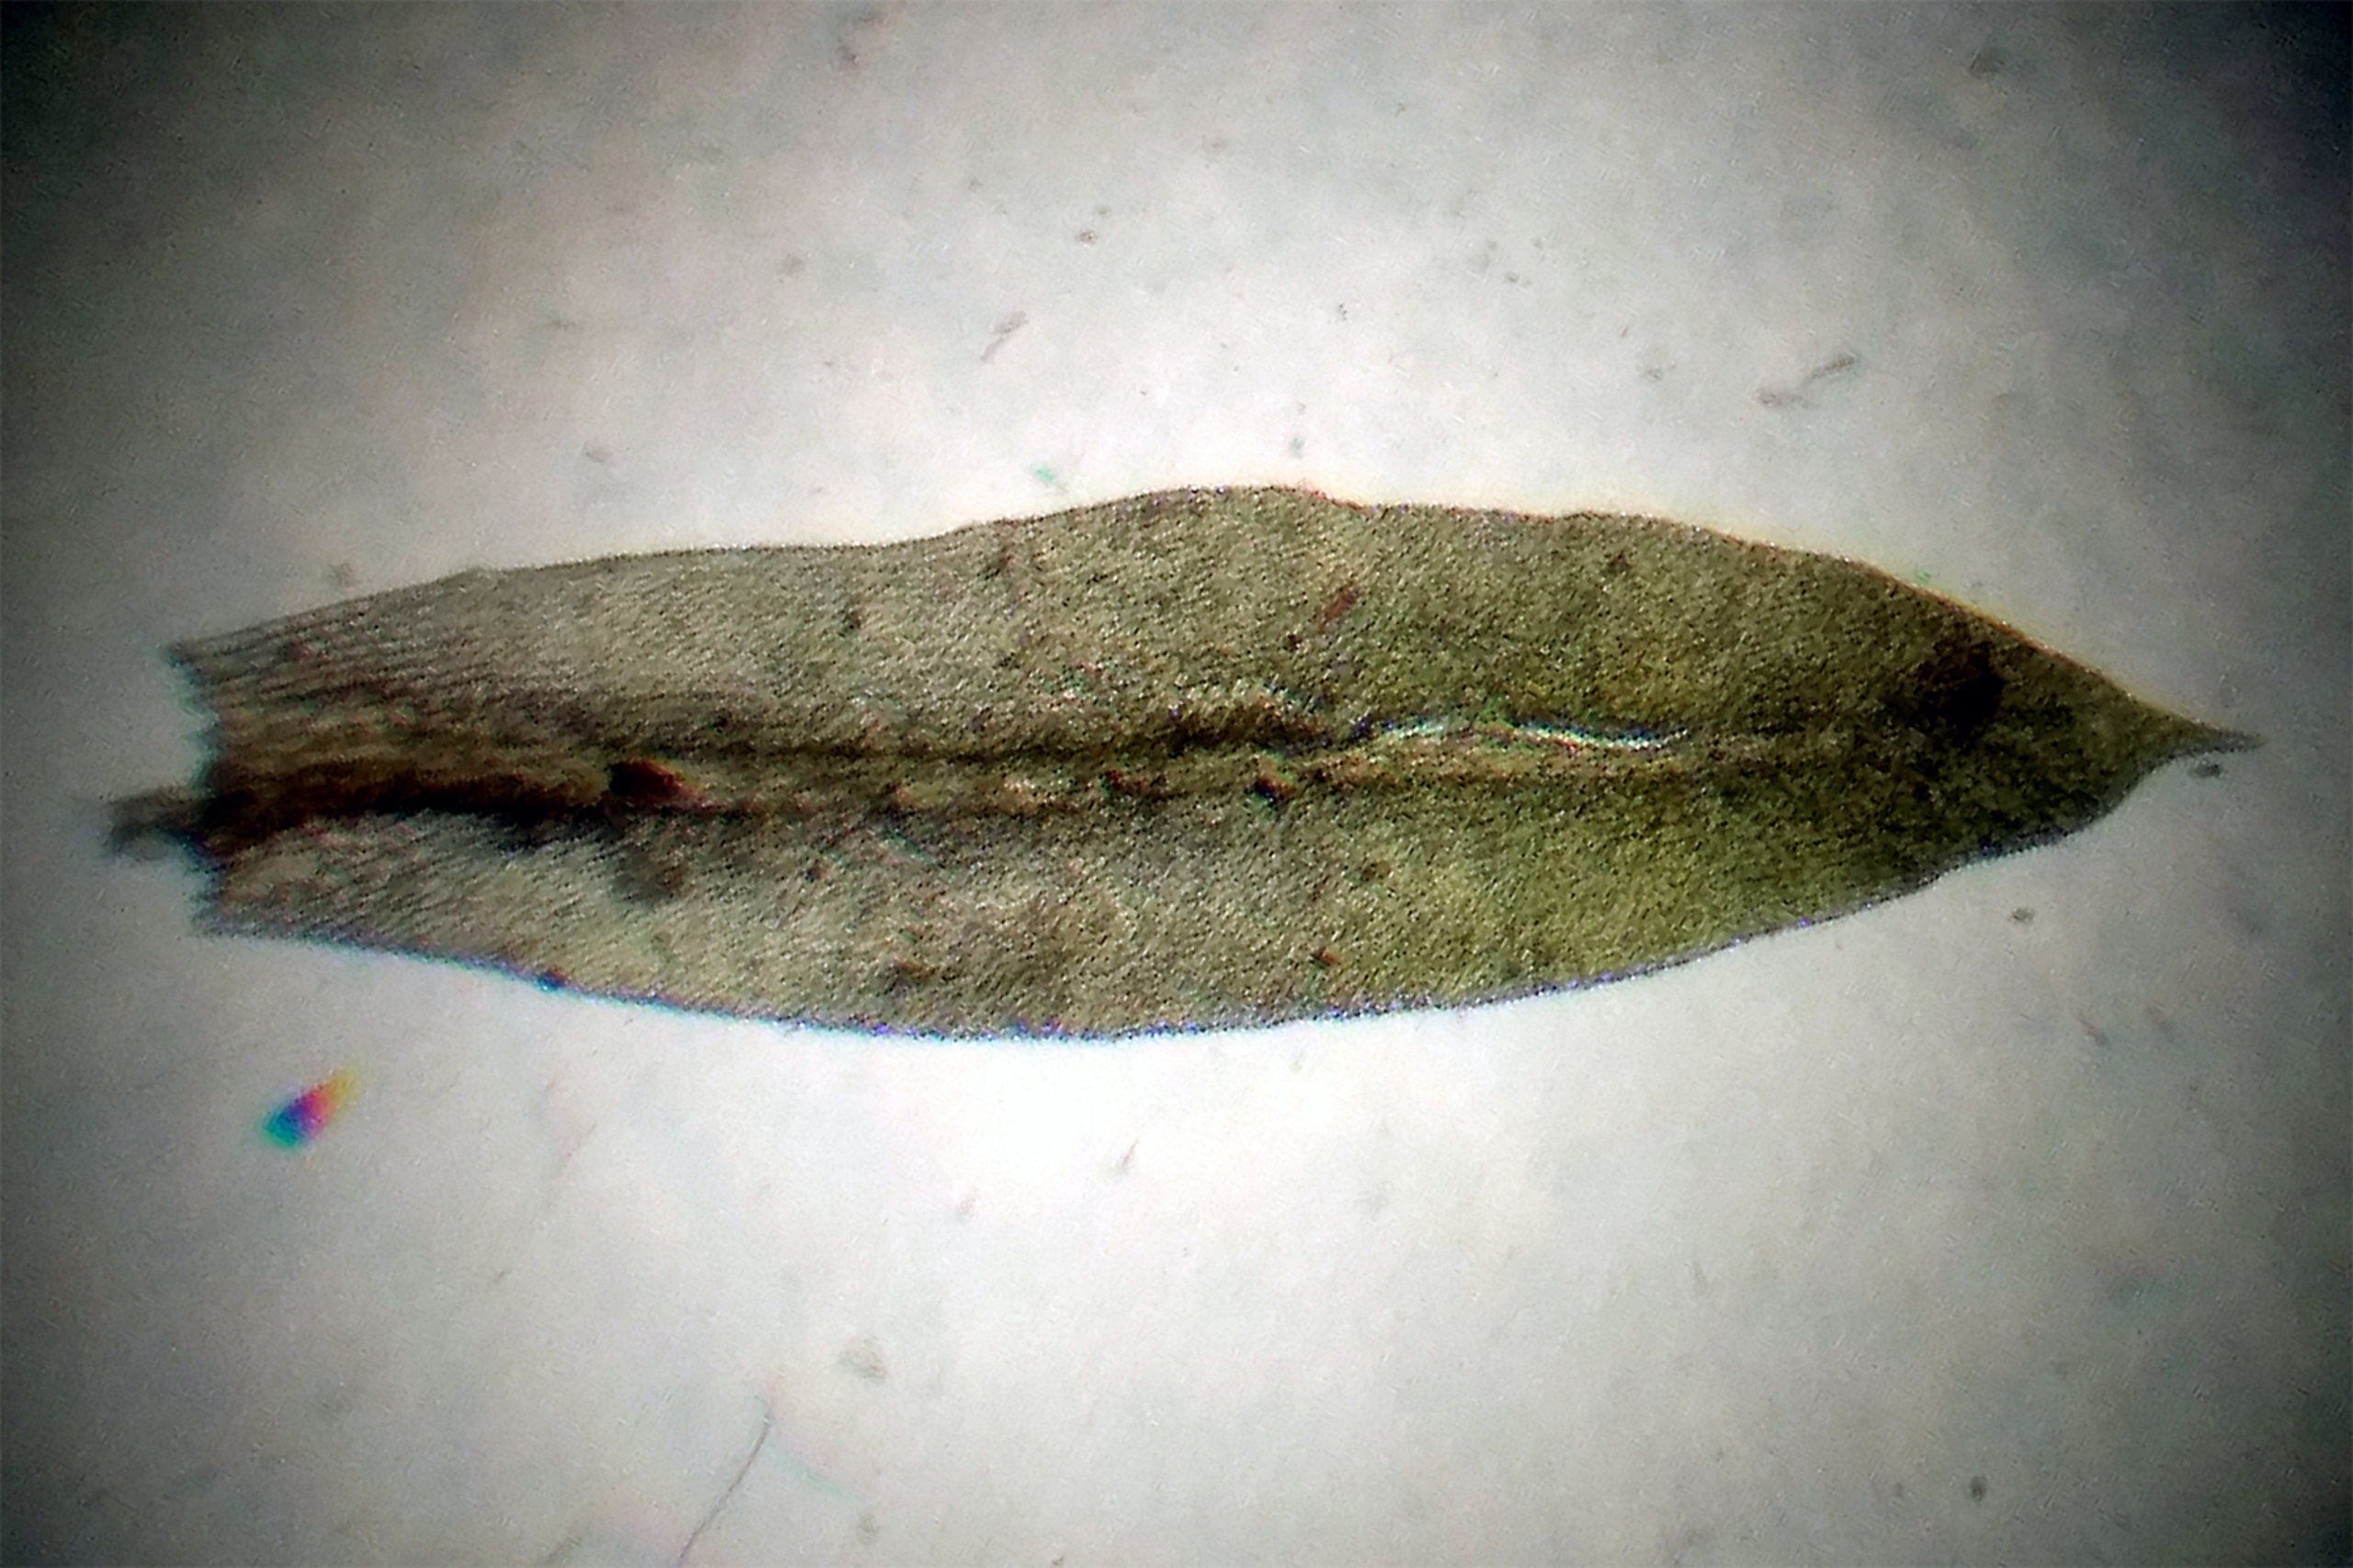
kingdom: Plantae
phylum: Bryophyta
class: Bryopsida
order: Orthotrichales
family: Orthotrichaceae
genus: Zygodon
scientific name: Zygodon conoideus
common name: Tand-køllemos
